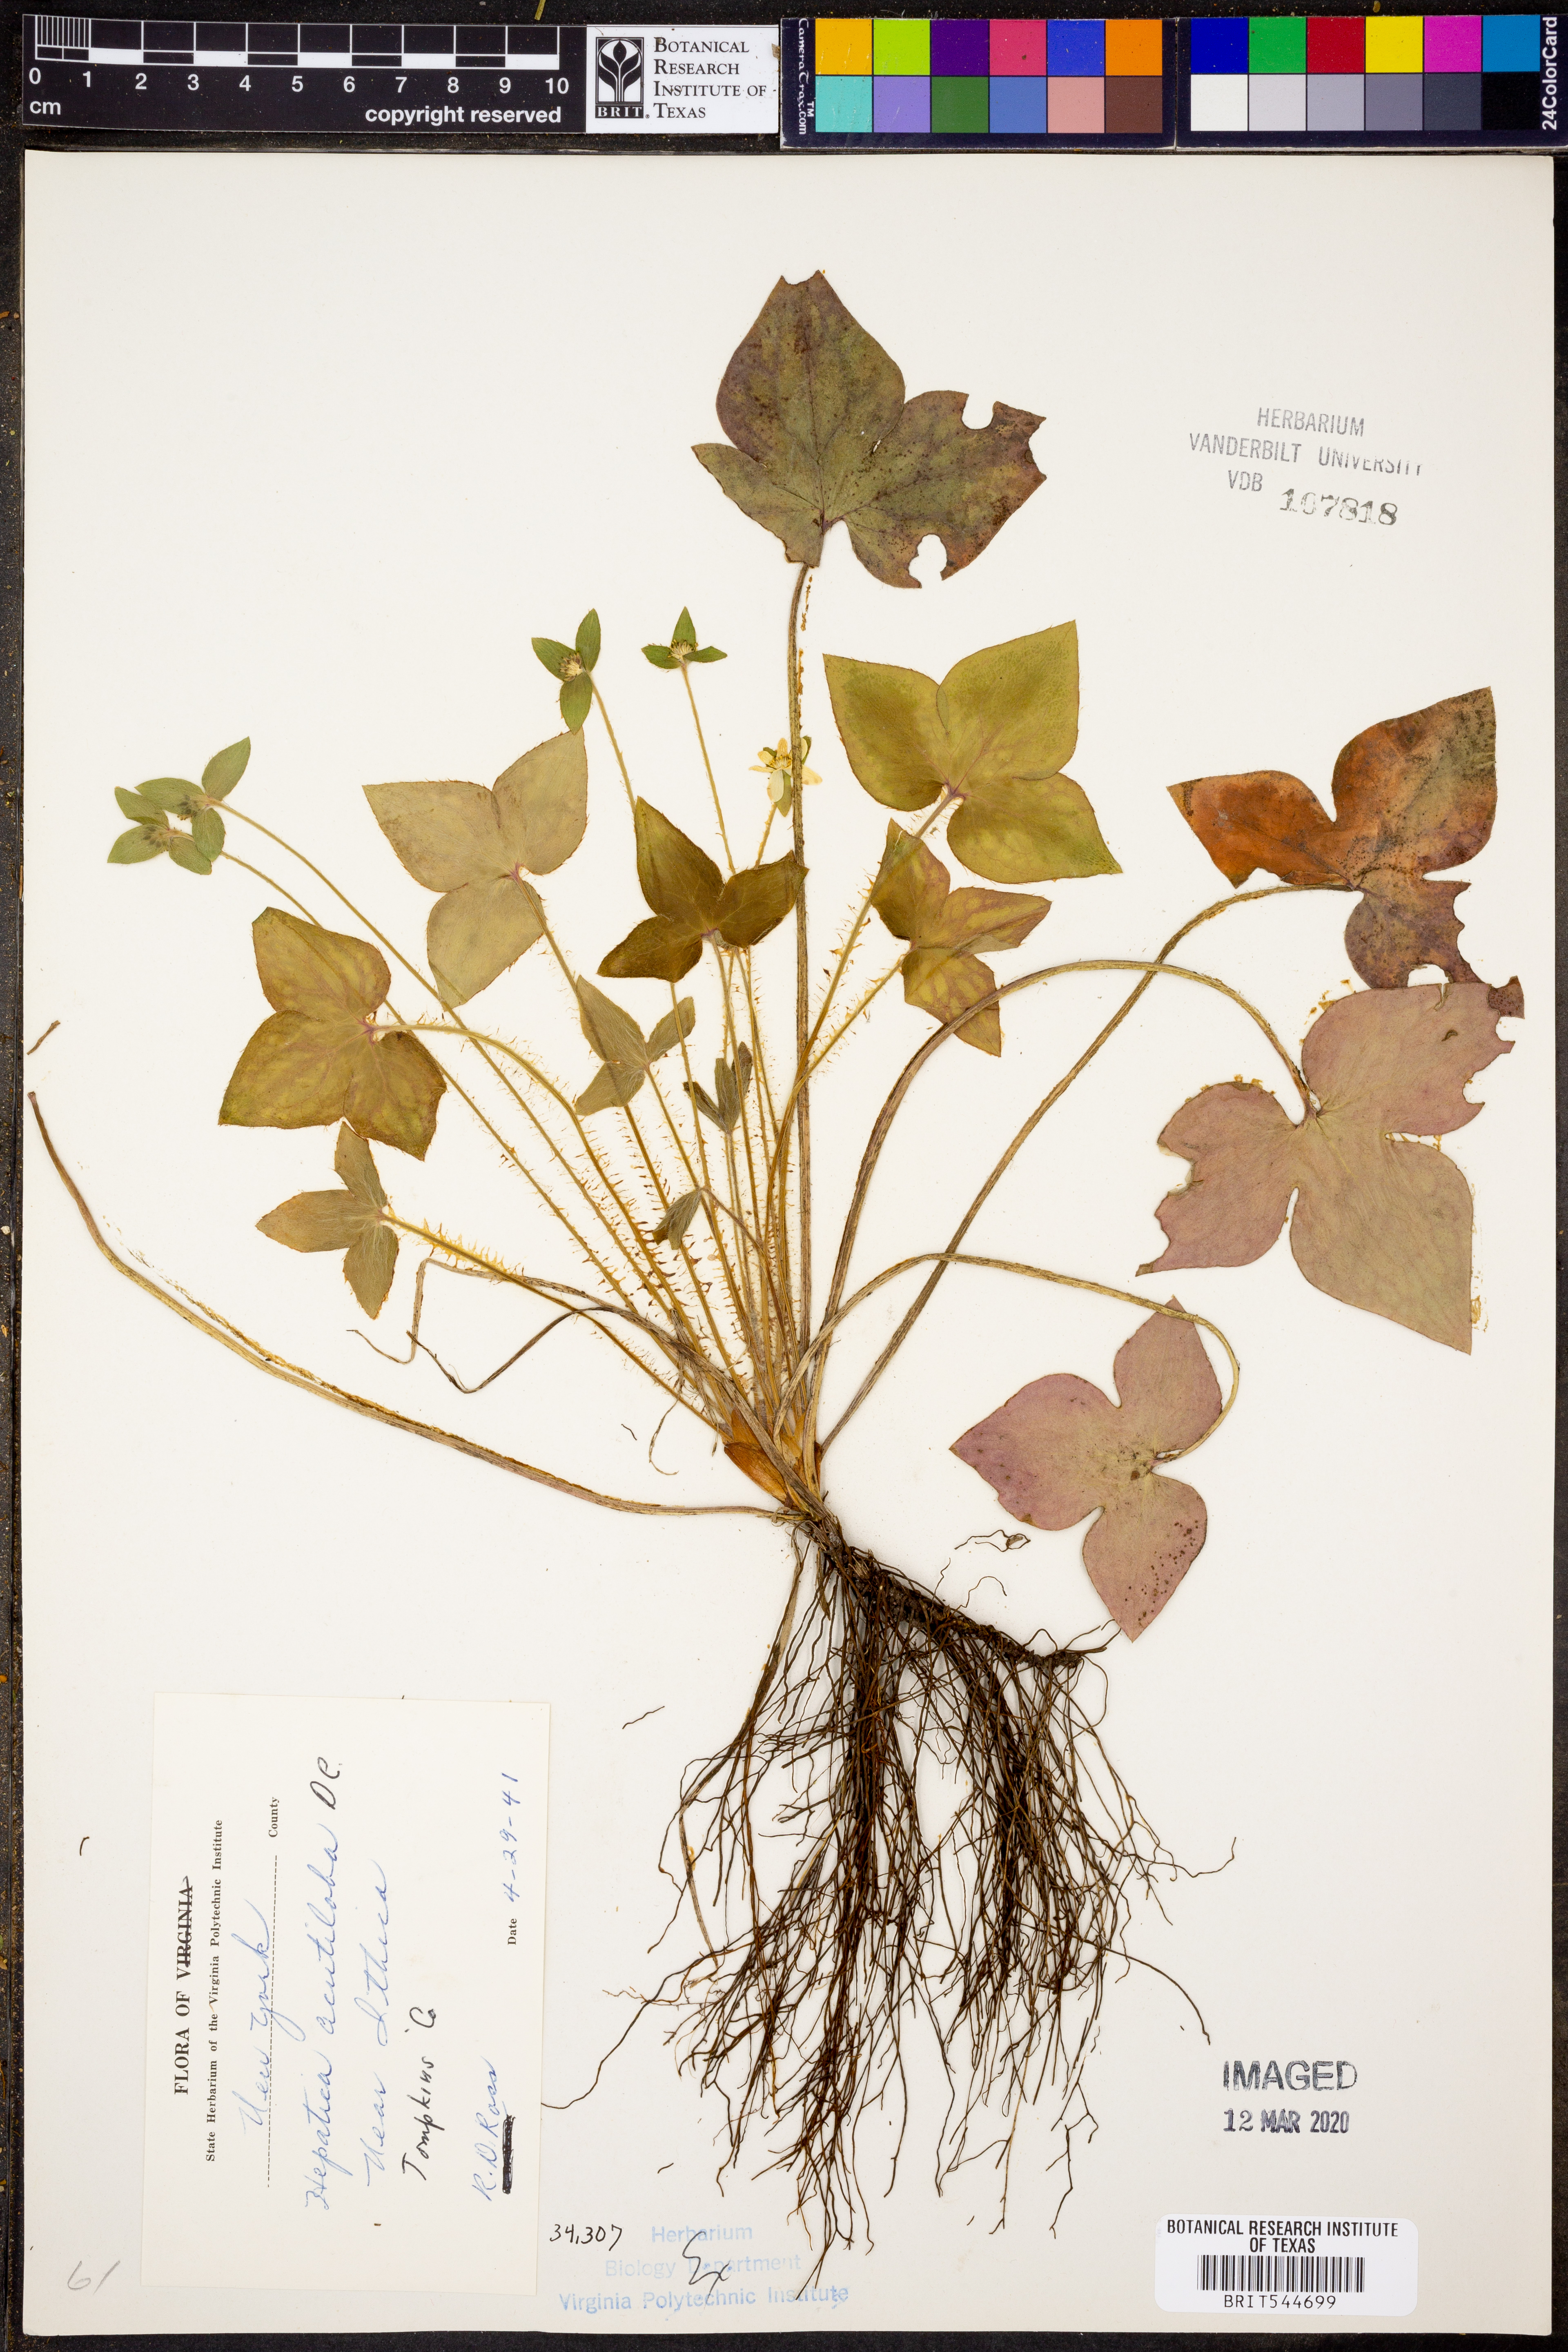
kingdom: Plantae
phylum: Tracheophyta
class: Magnoliopsida
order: Ranunculales
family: Ranunculaceae
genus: Hepatica
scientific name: Hepatica acutiloba
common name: Sharp-lobed hepatica
